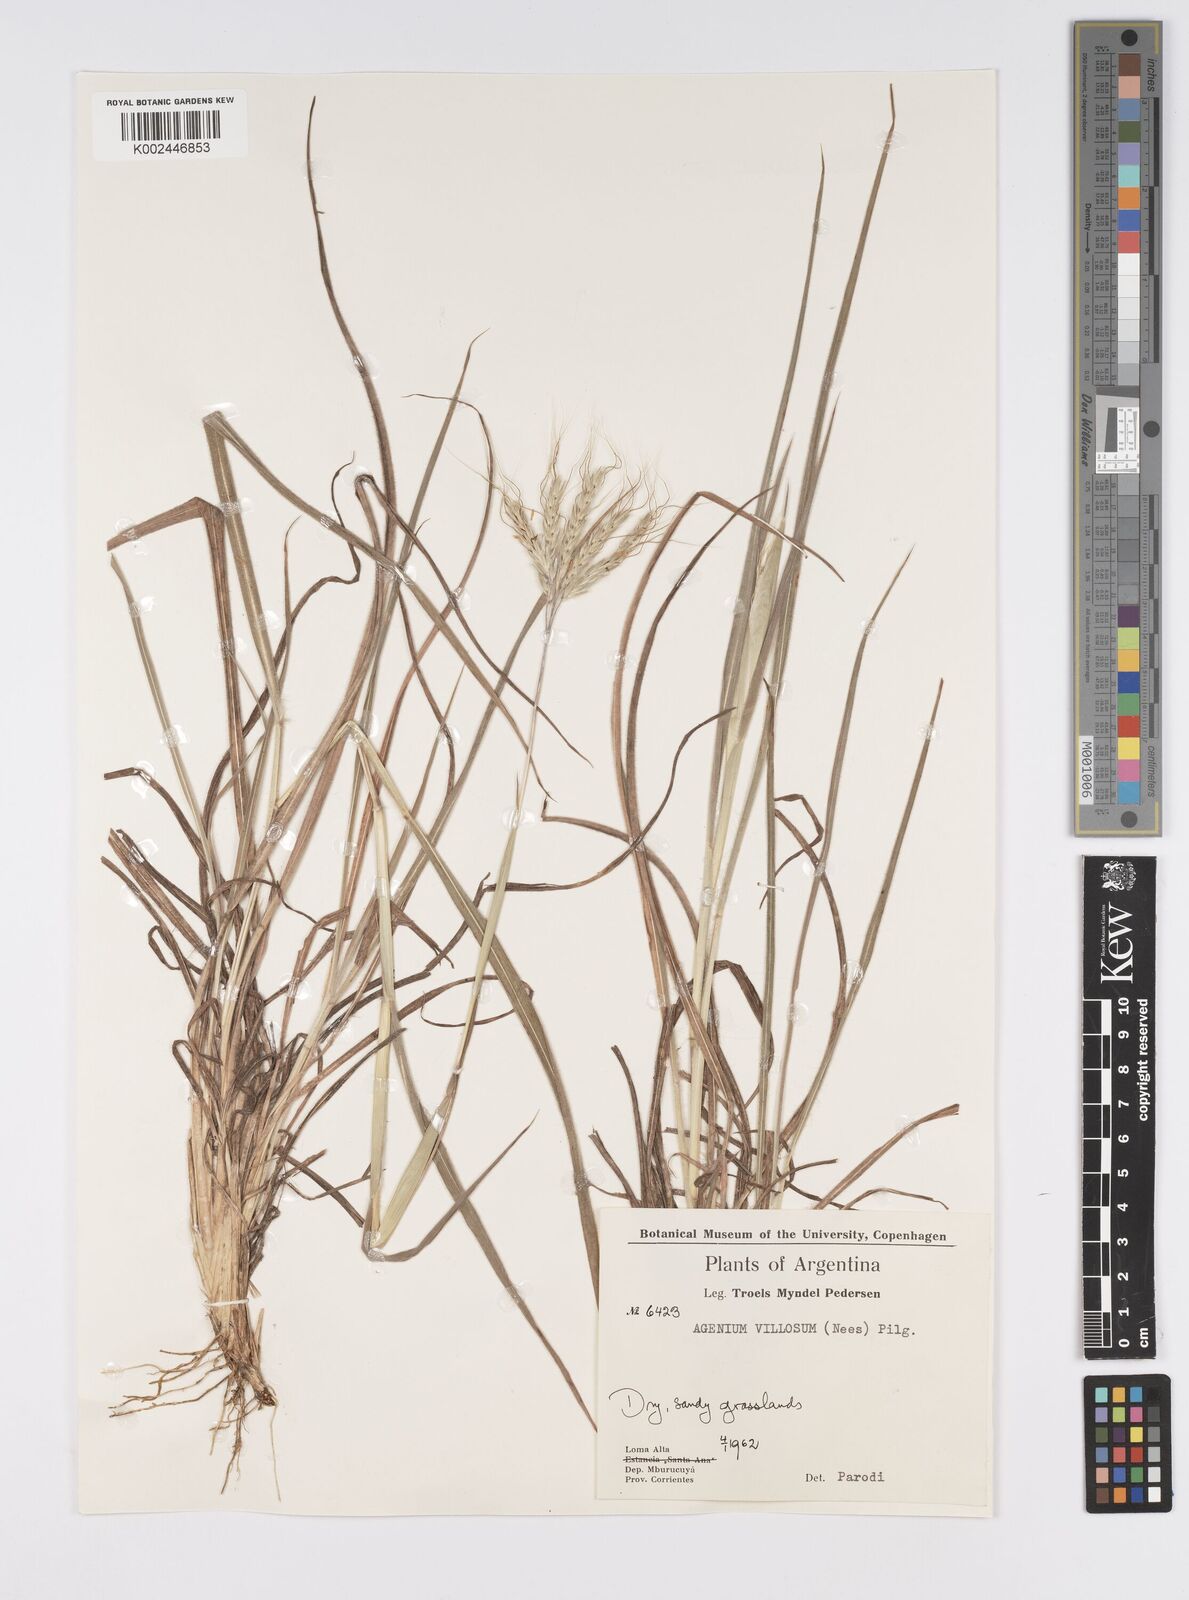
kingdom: Plantae
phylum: Tracheophyta
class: Liliopsida
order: Poales
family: Poaceae
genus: Agenium
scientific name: Agenium villosum
